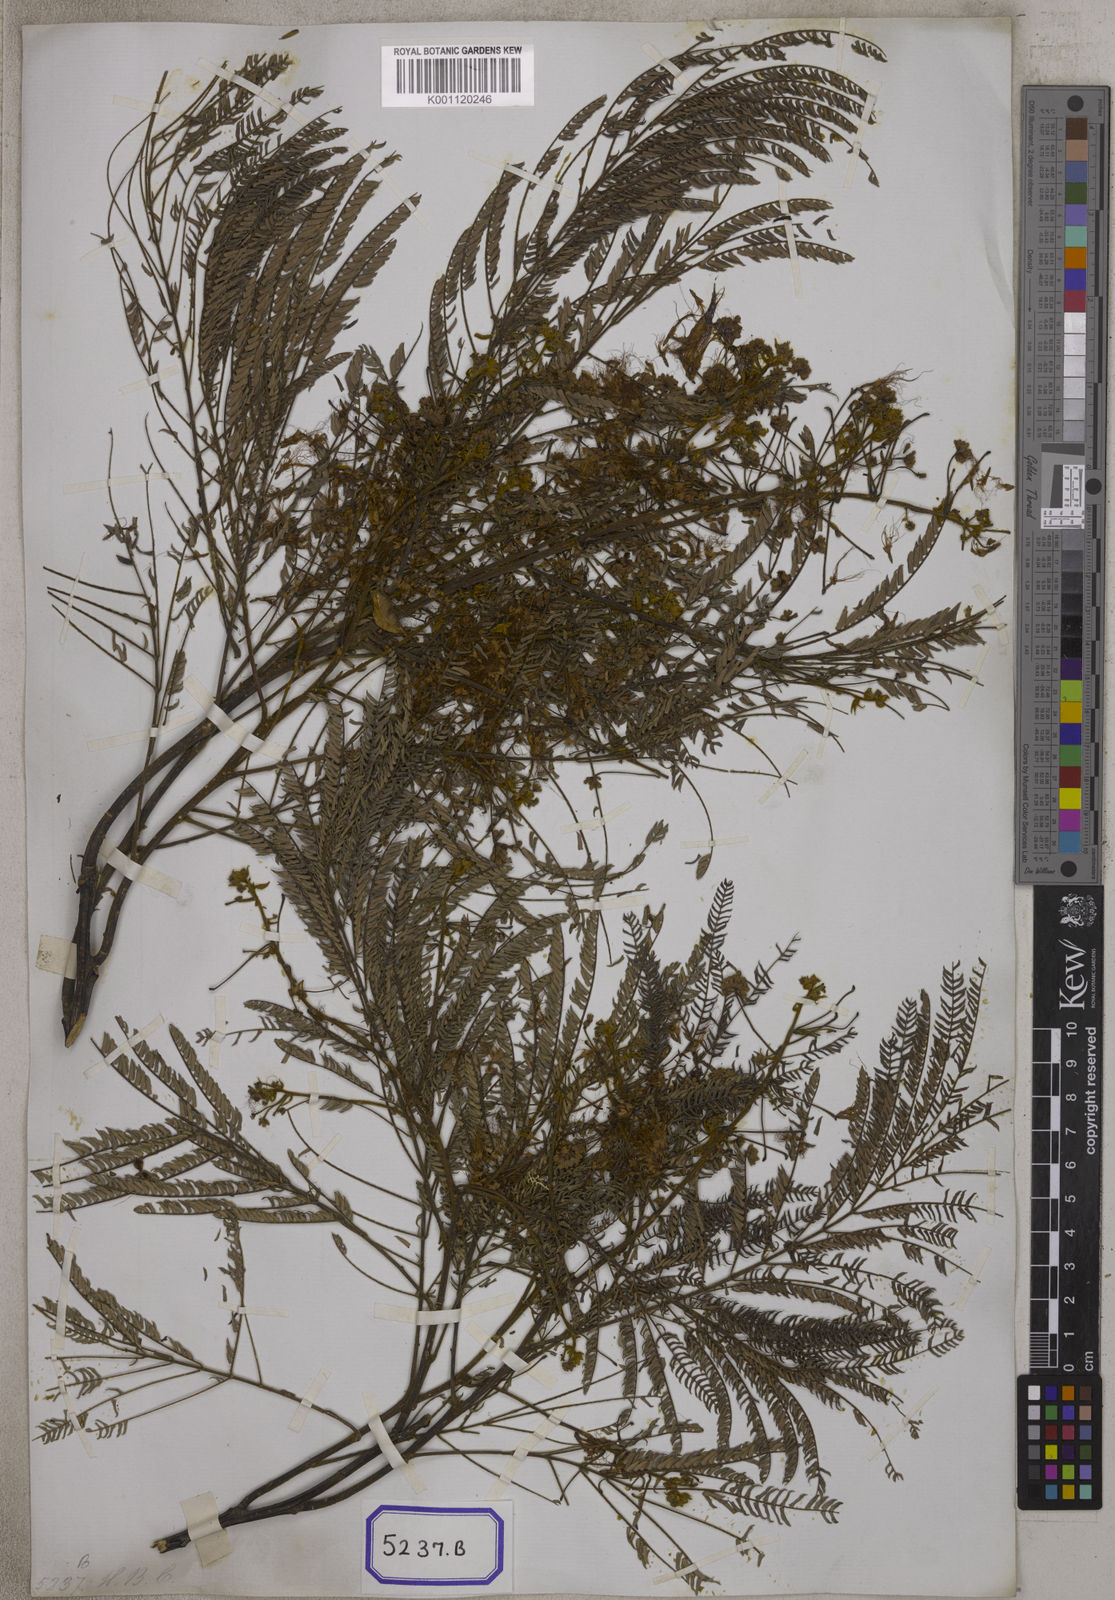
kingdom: Plantae
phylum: Tracheophyta
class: Magnoliopsida
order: Fabales
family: Fabaceae
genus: Albizia
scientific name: Albizia chinensis
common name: Chinese albizia
